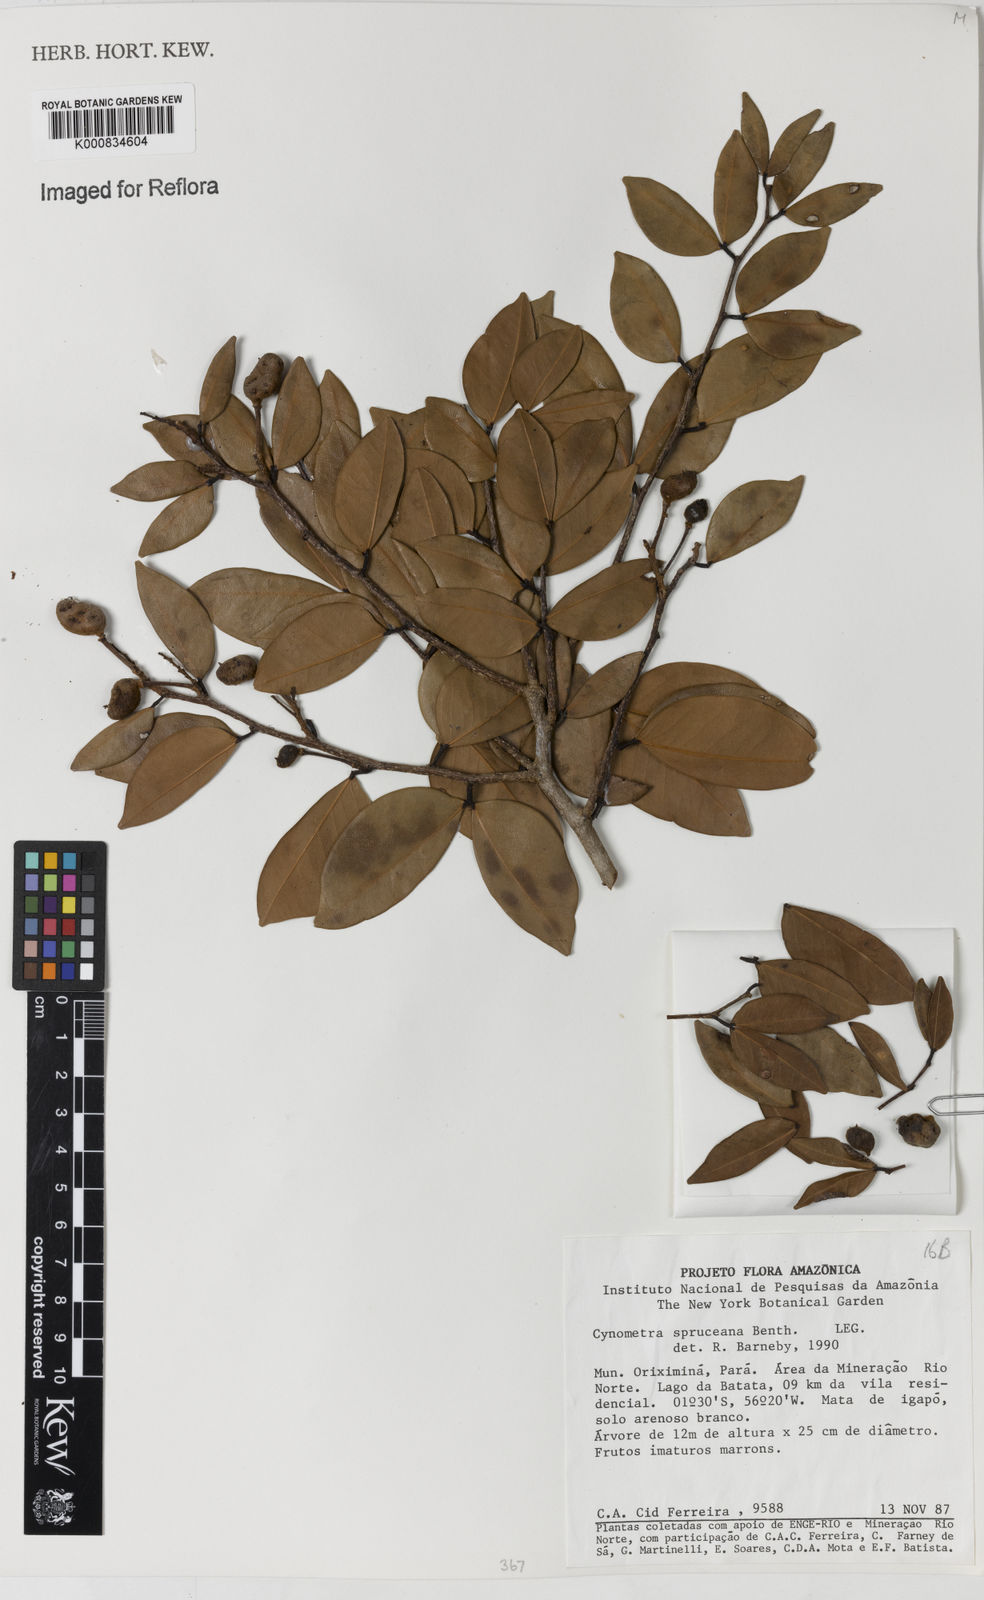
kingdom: Plantae
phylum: Tracheophyta
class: Magnoliopsida
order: Fabales
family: Fabaceae
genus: Cynometra
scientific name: Cynometra phaselocarpa
